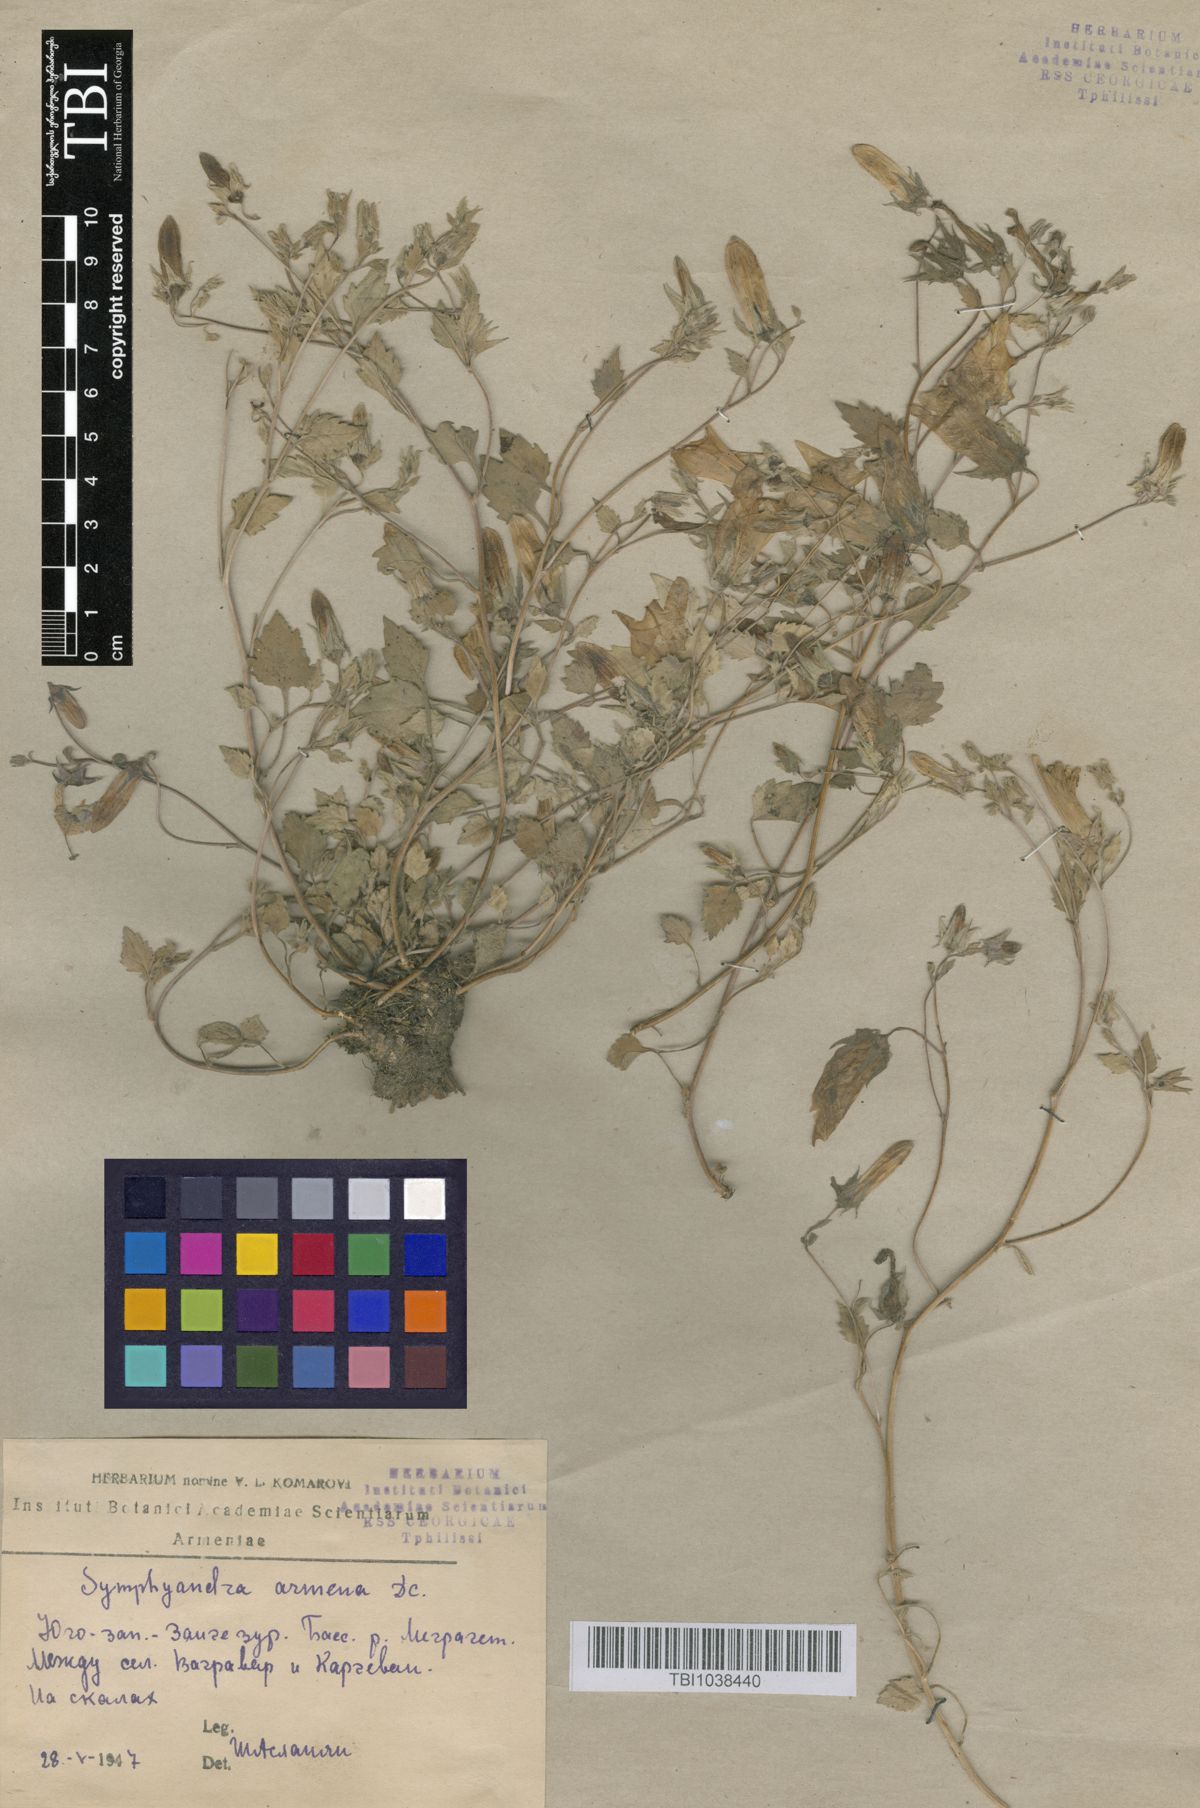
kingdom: Plantae
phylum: Tracheophyta
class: Magnoliopsida
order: Asterales
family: Campanulaceae
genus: Campanula
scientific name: Campanula armena
